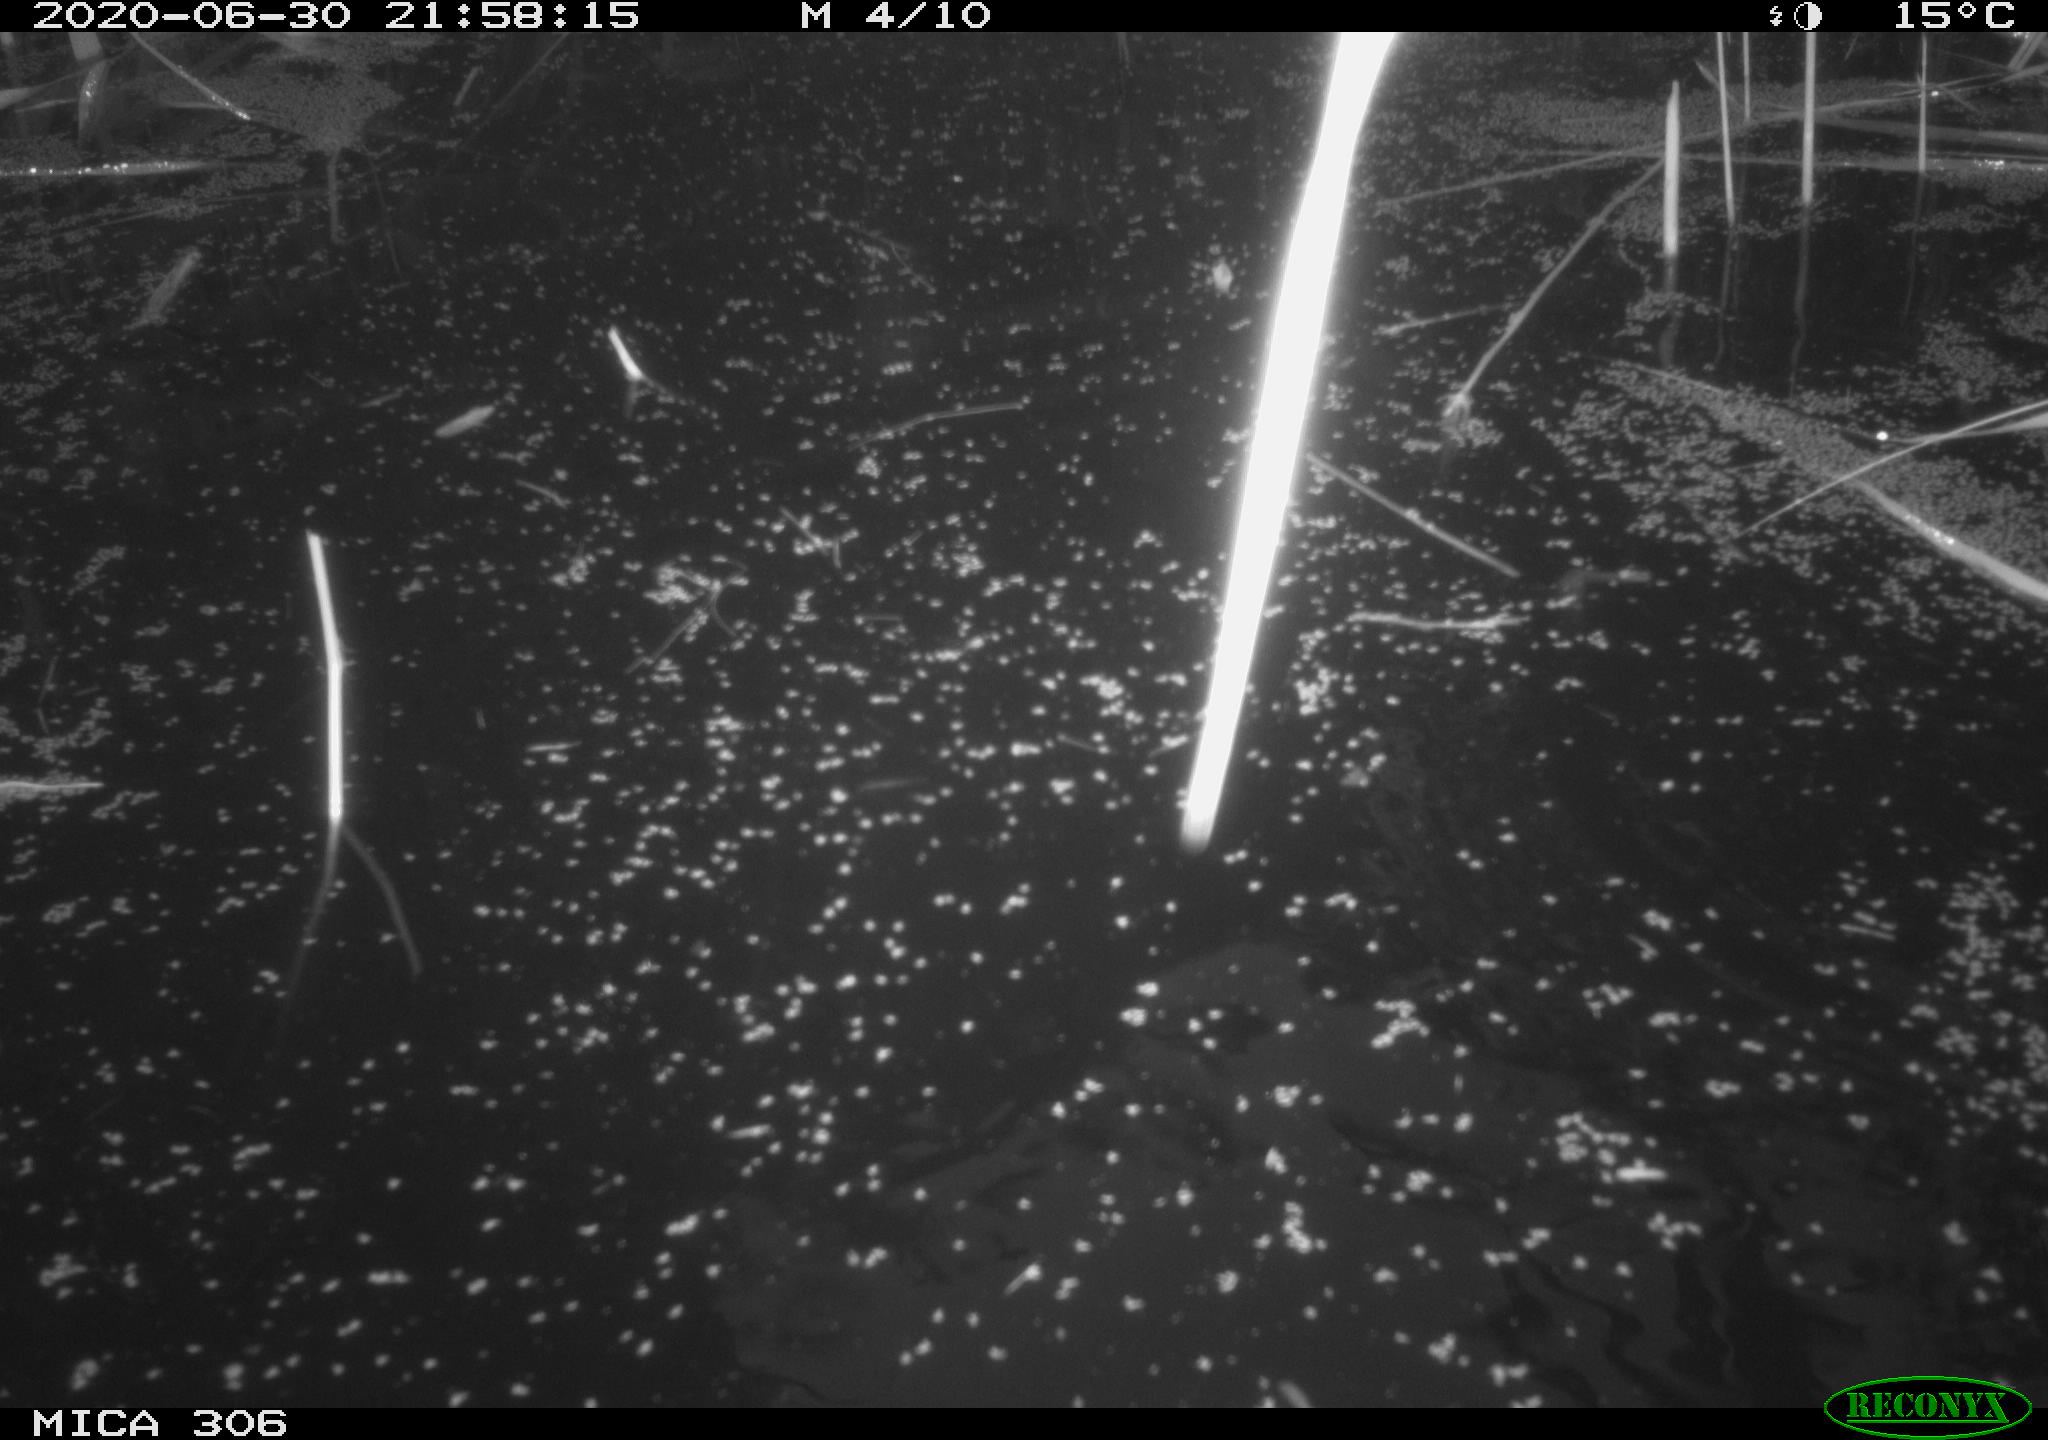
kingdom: Animalia
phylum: Chordata
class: Mammalia
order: Rodentia
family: Cricetidae
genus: Ondatra
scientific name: Ondatra zibethicus
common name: Muskrat
